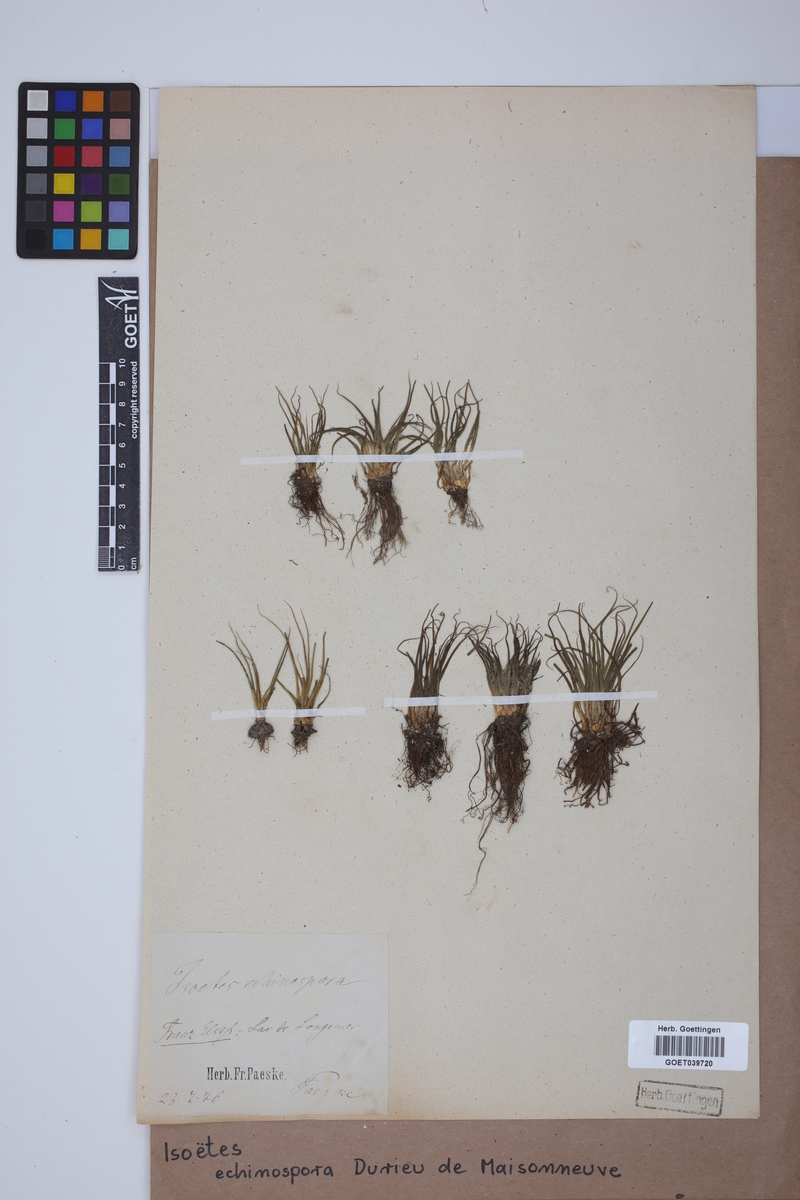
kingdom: Plantae
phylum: Tracheophyta
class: Lycopodiopsida
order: Isoetales
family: Isoetaceae
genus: Isoetes
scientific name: Isoetes echinospora
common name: Spring quillwort
